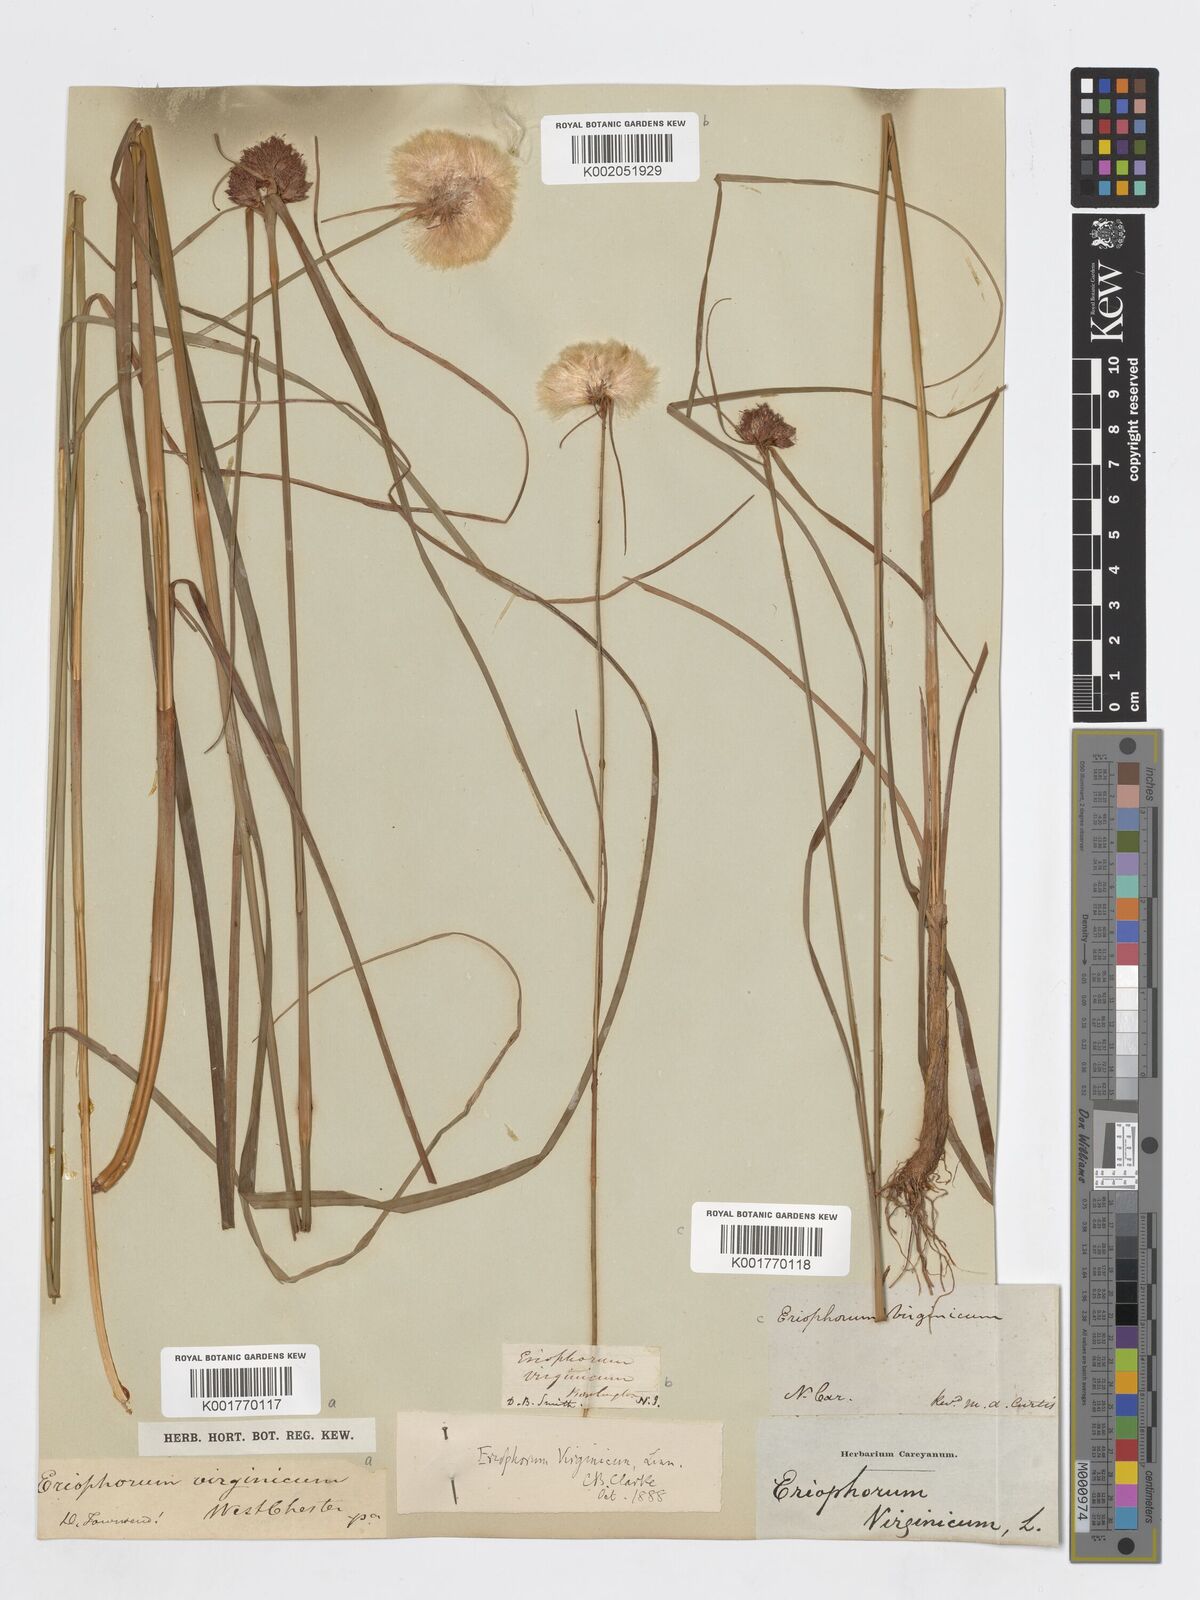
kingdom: Plantae
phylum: Tracheophyta
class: Liliopsida
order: Poales
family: Cyperaceae
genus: Eriophorum
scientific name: Eriophorum virginicum
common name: Tawny cottongrass
